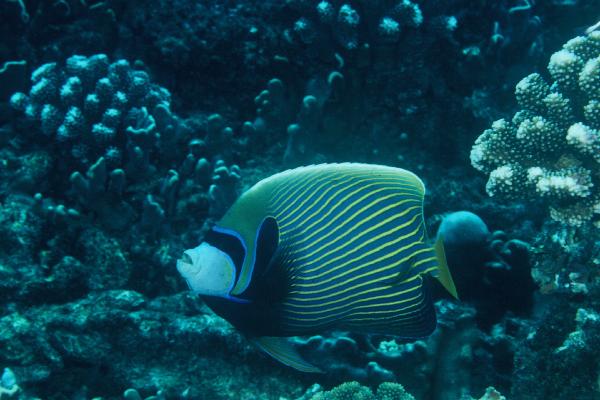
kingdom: Animalia
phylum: Chordata
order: Perciformes
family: Pomacanthidae
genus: Pomacanthus
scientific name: Pomacanthus imperator
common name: Emperor angelfish
